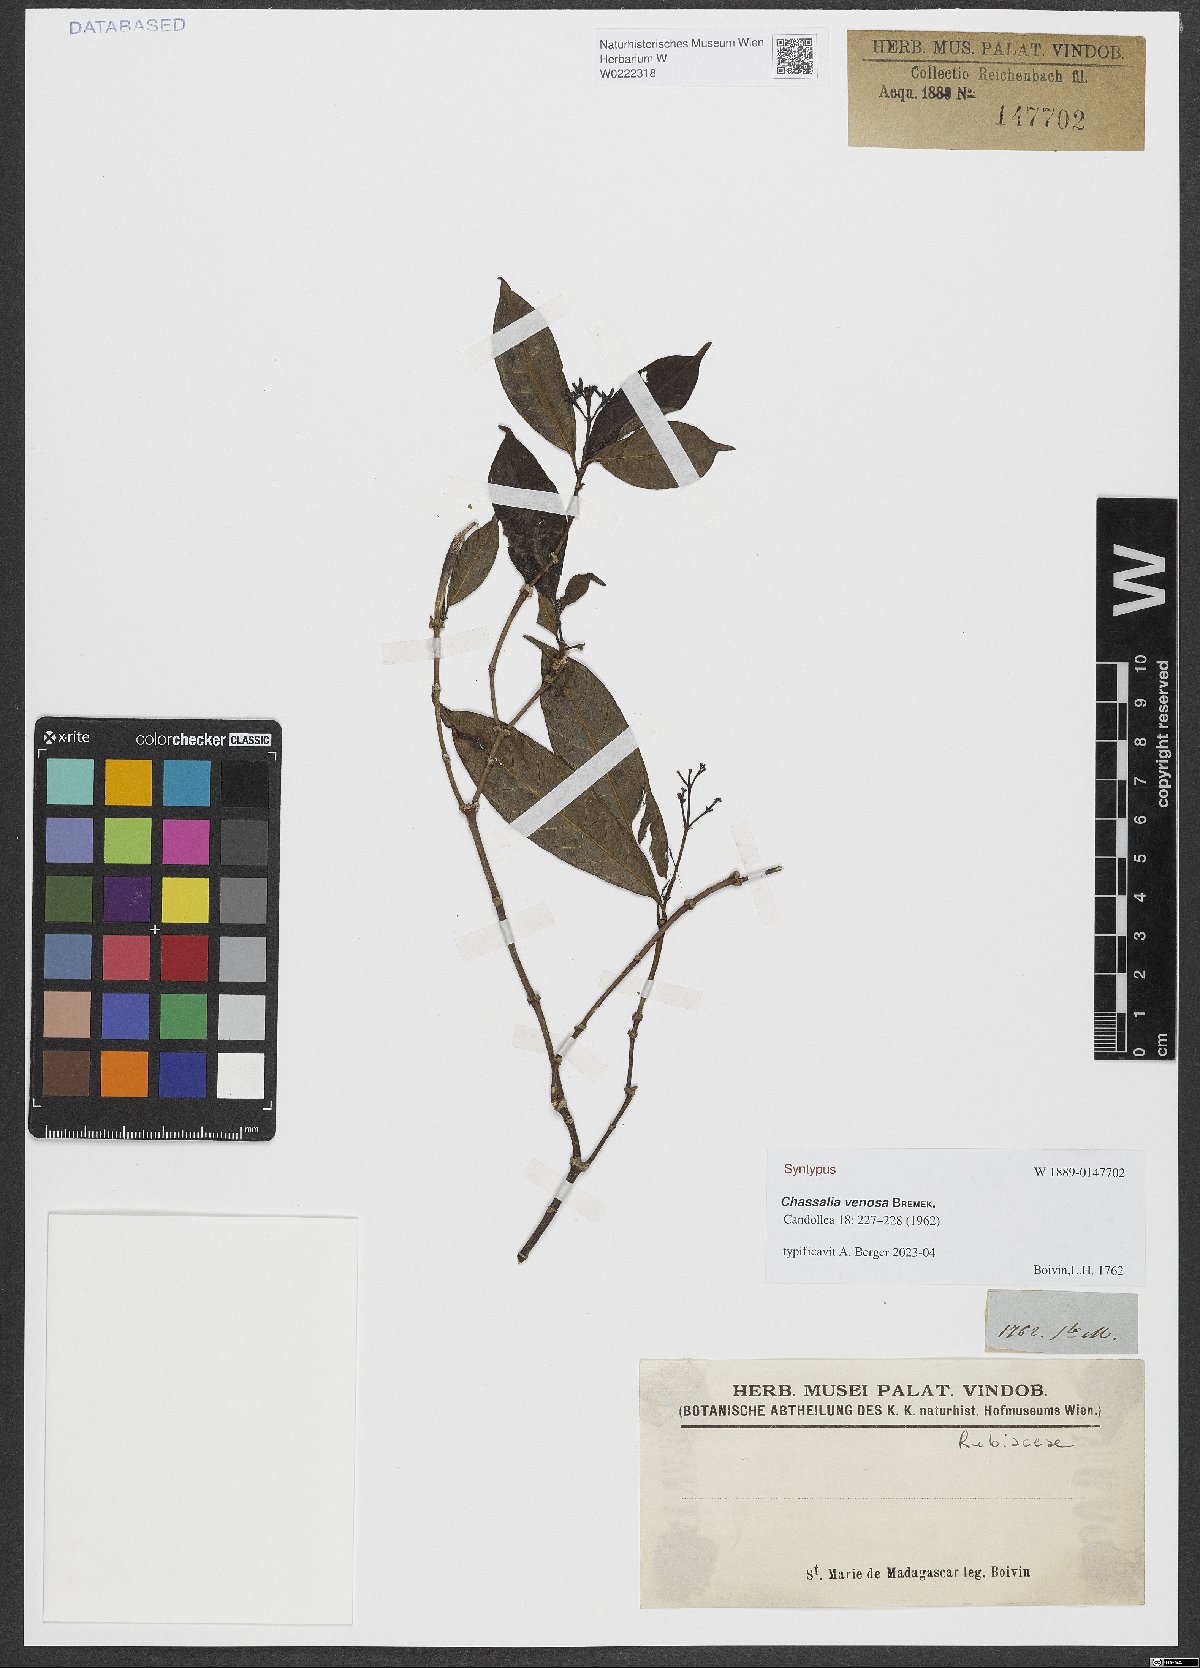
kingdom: Plantae
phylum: Tracheophyta
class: Magnoliopsida
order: Gentianales
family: Rubiaceae
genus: Chassalia
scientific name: Chassalia venosa
